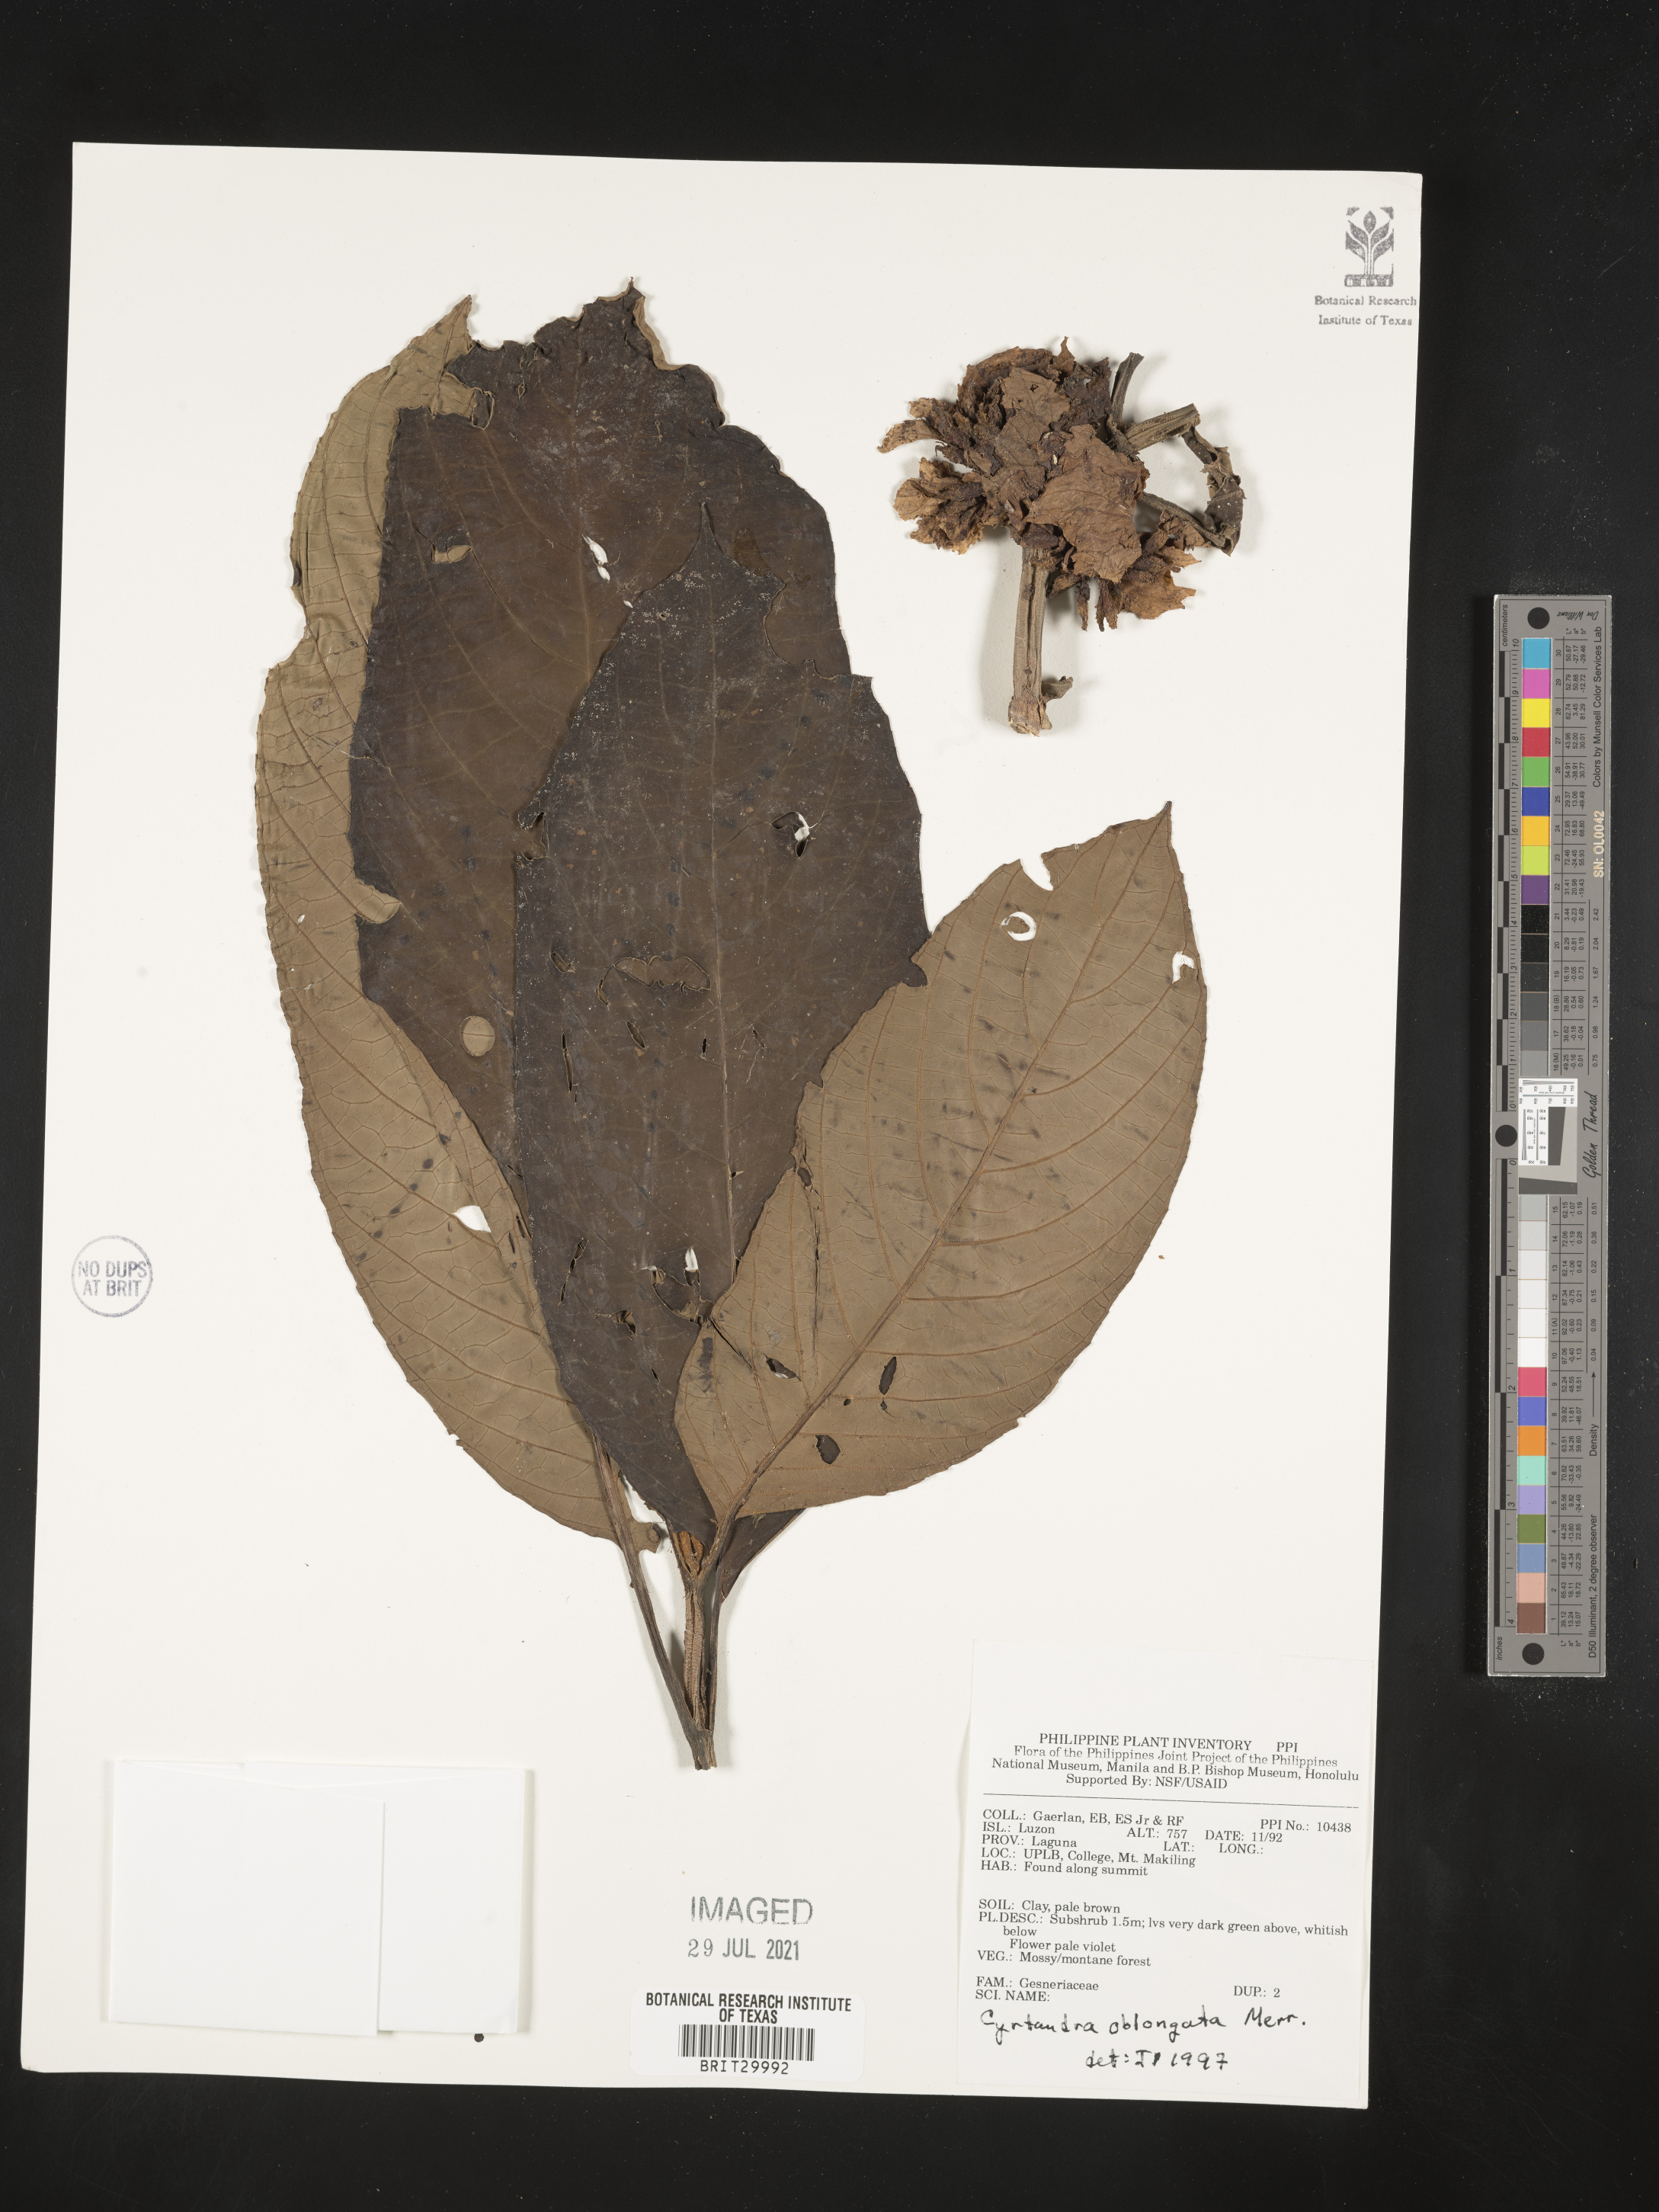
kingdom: Plantae
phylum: Tracheophyta
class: Magnoliopsida
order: Lamiales
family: Gesneriaceae
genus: Cyrtandra
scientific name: Cyrtandra oblongata
